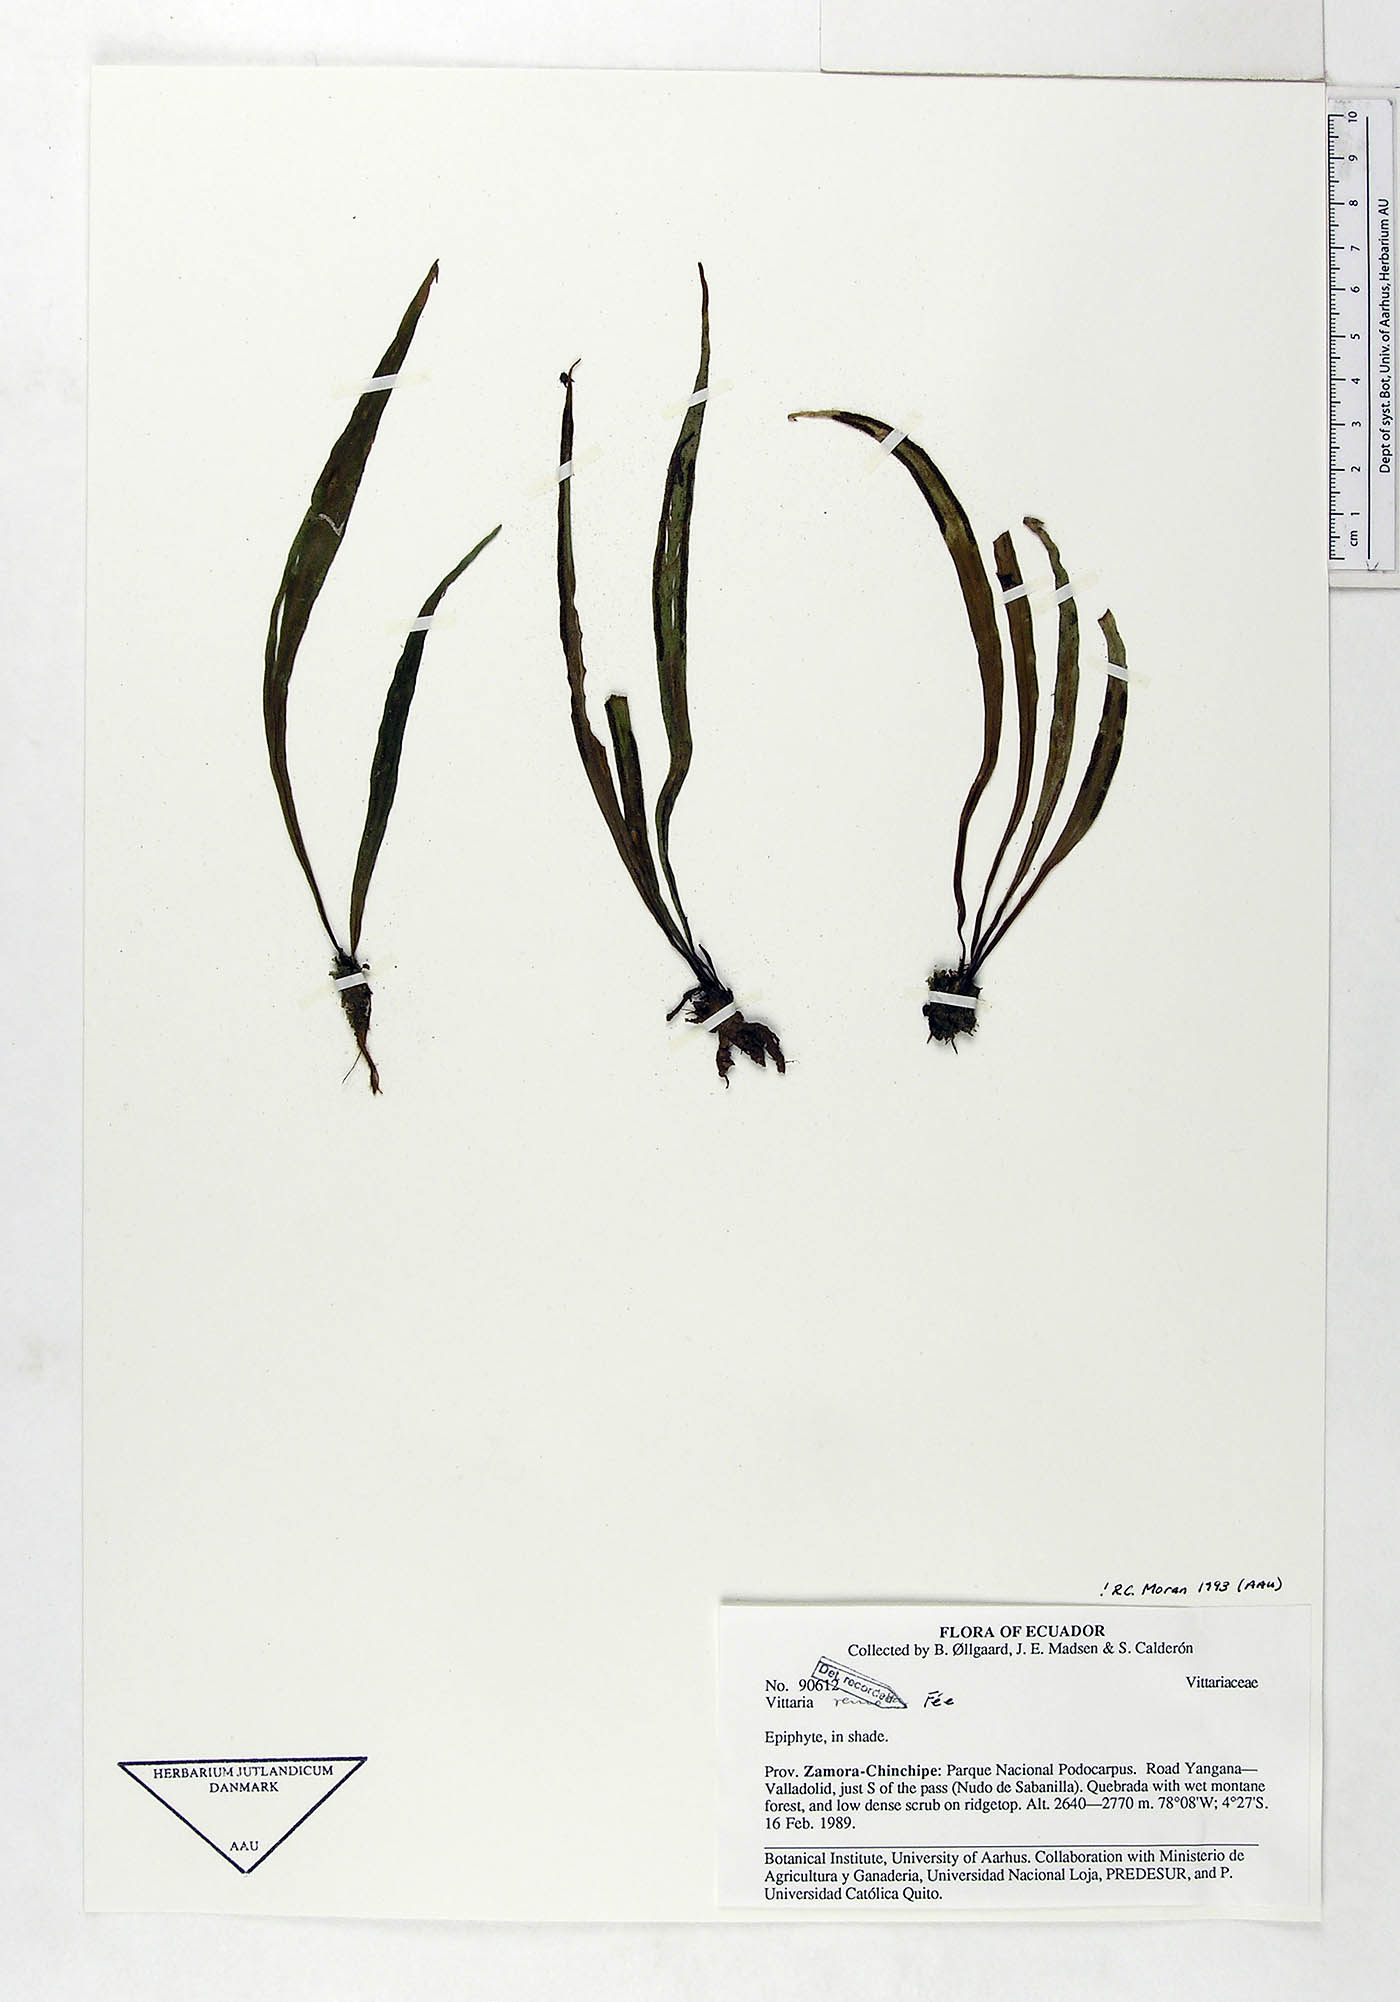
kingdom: Plantae
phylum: Tracheophyta
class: Polypodiopsida
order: Polypodiales
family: Pteridaceae
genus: Radiovittaria
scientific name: Radiovittaria remota
